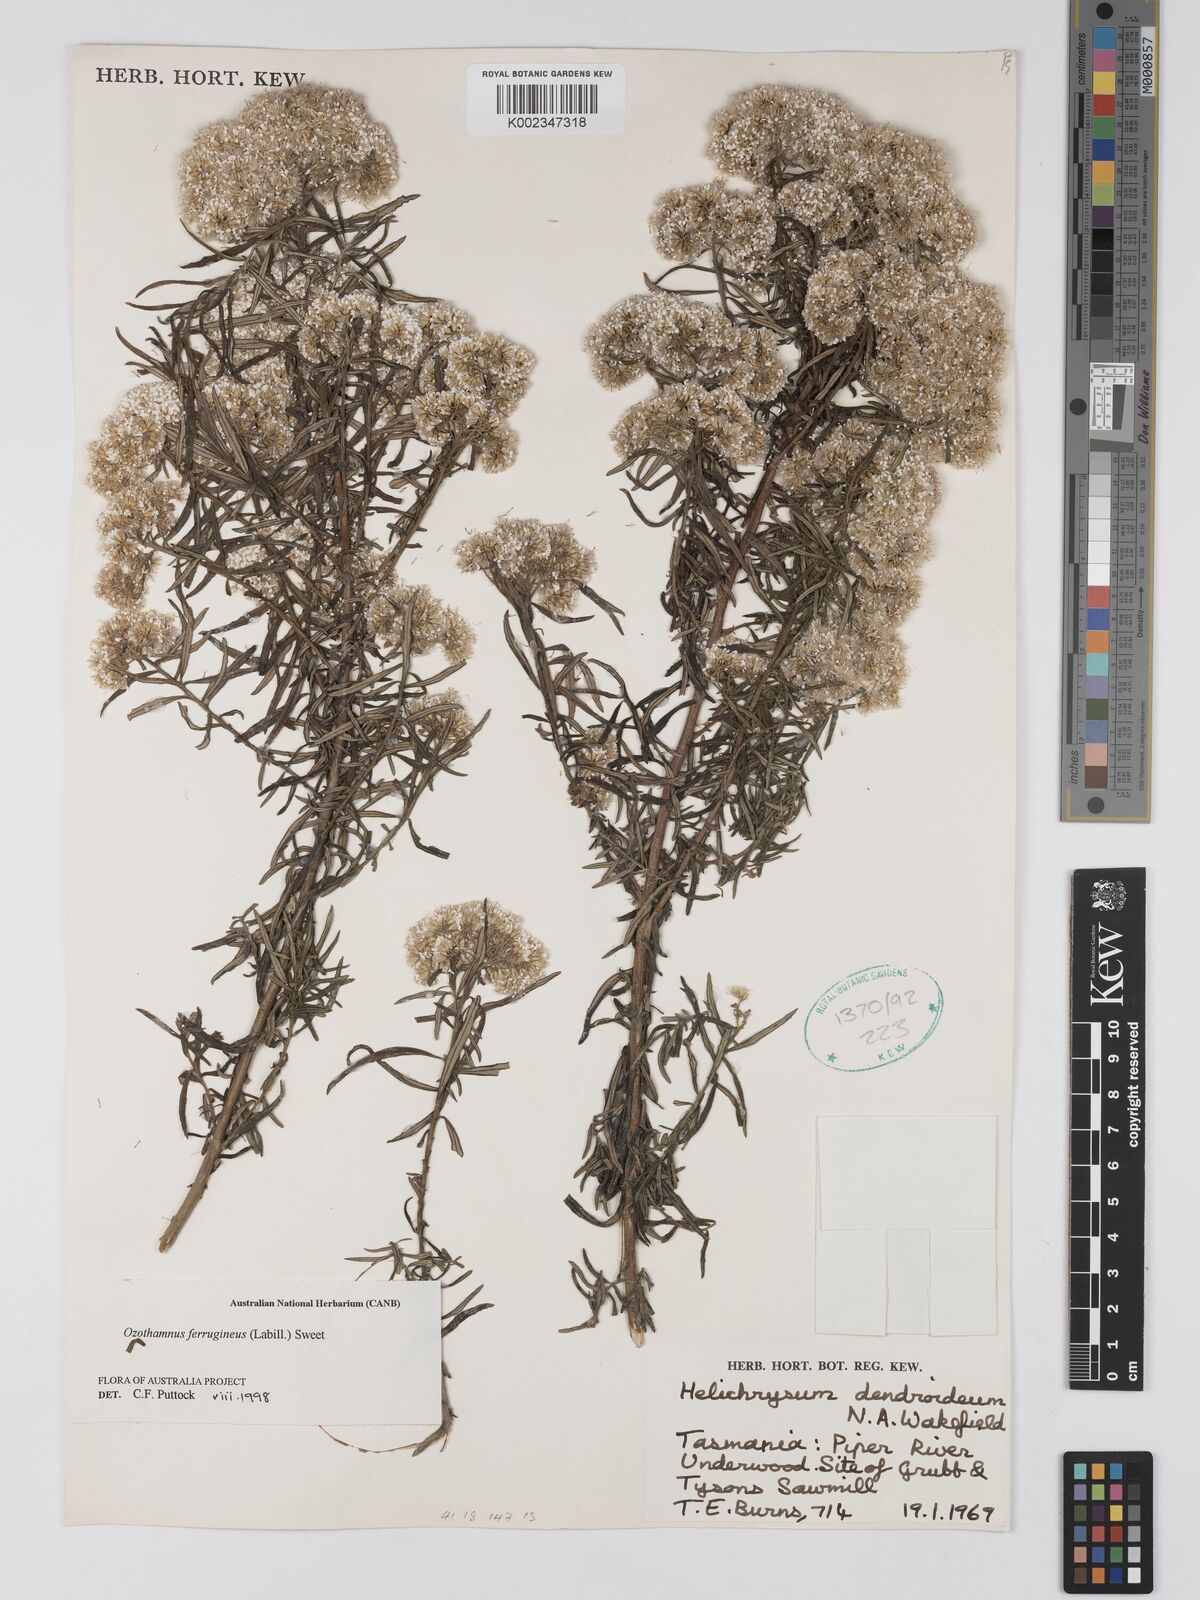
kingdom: Plantae
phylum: Tracheophyta
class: Magnoliopsida
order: Asterales
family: Asteraceae
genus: Ozothamnus
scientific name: Ozothamnus ferrugineus
